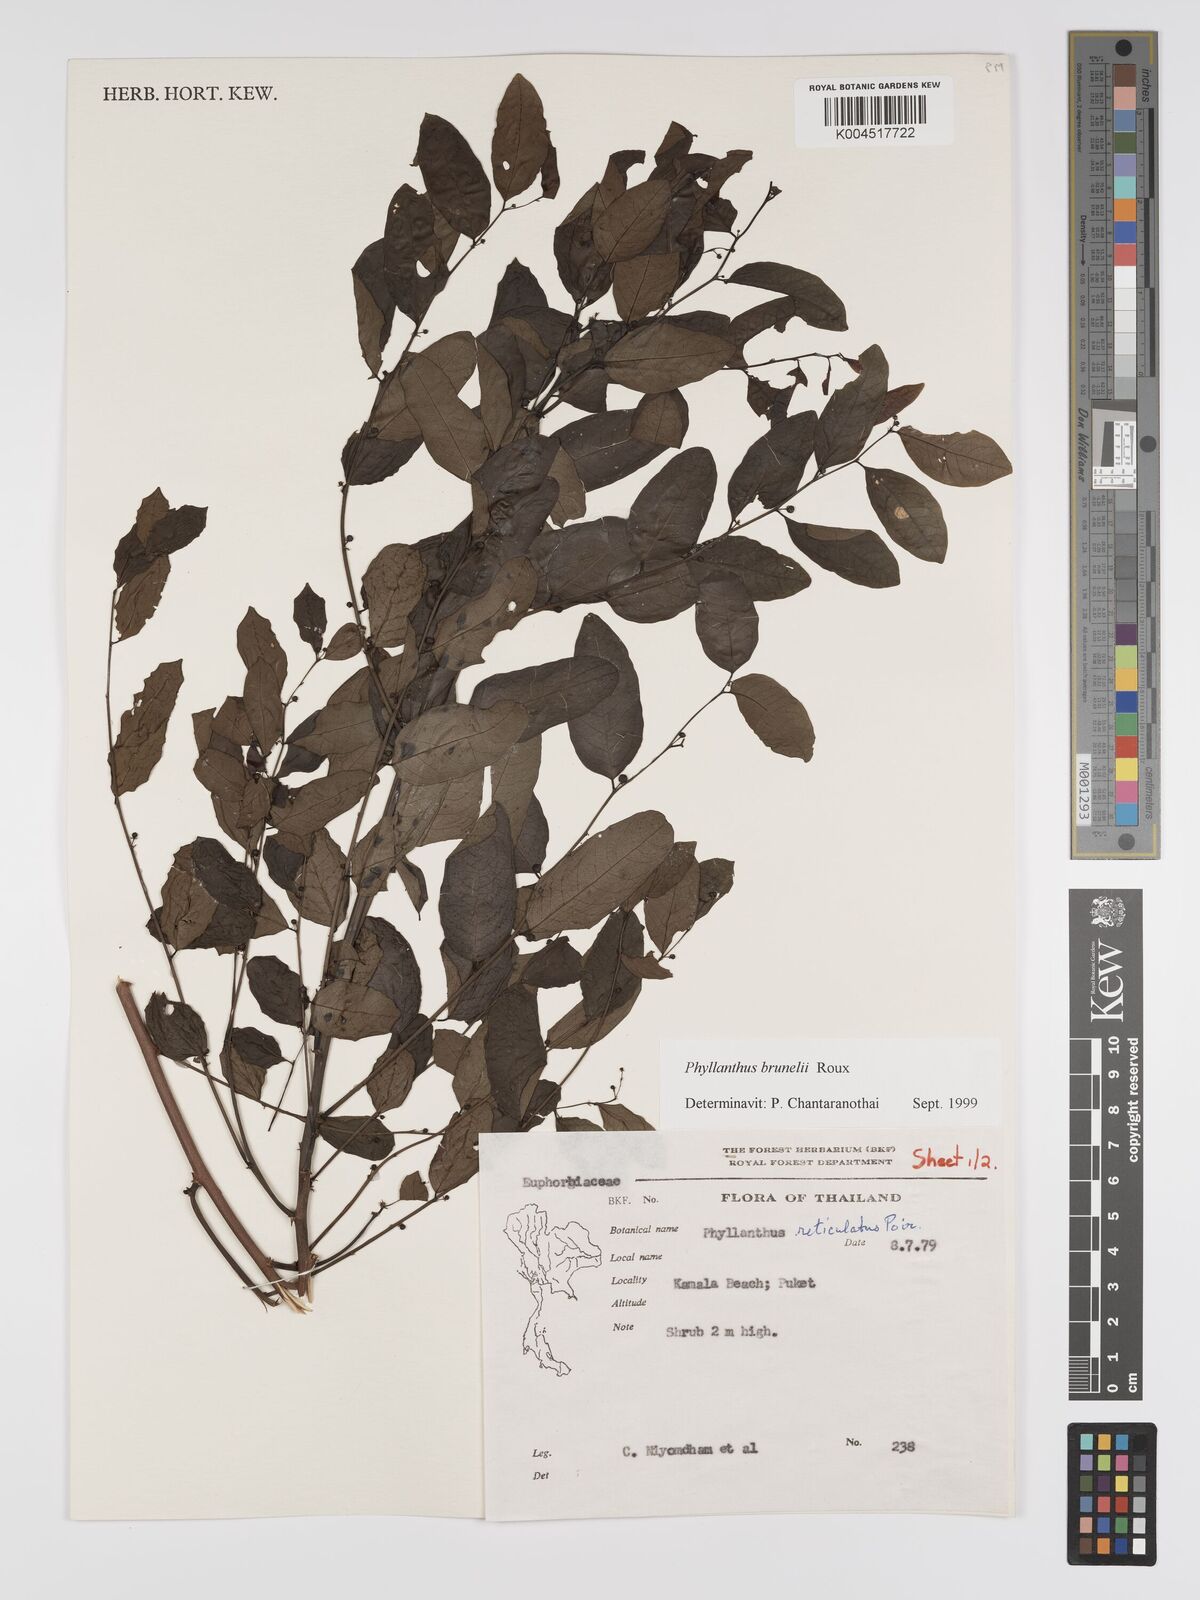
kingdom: Plantae
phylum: Tracheophyta
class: Magnoliopsida
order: Malpighiales
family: Phyllanthaceae
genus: Phyllanthus
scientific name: Phyllanthus microcarpus
